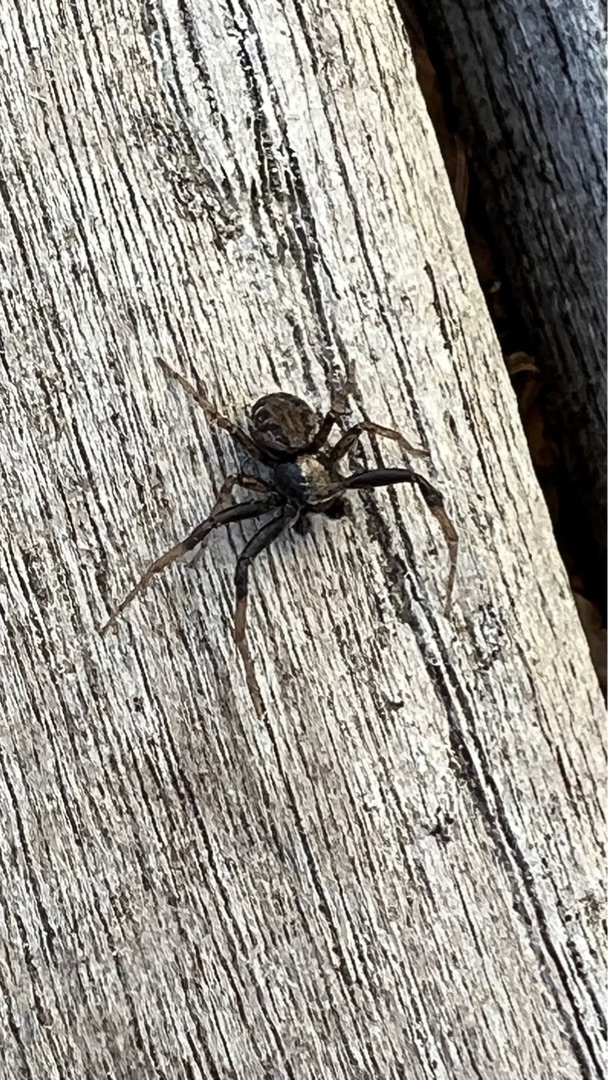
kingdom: Animalia
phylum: Arthropoda
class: Arachnida
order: Araneae
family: Thomisidae
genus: Xysticus
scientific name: Xysticus
